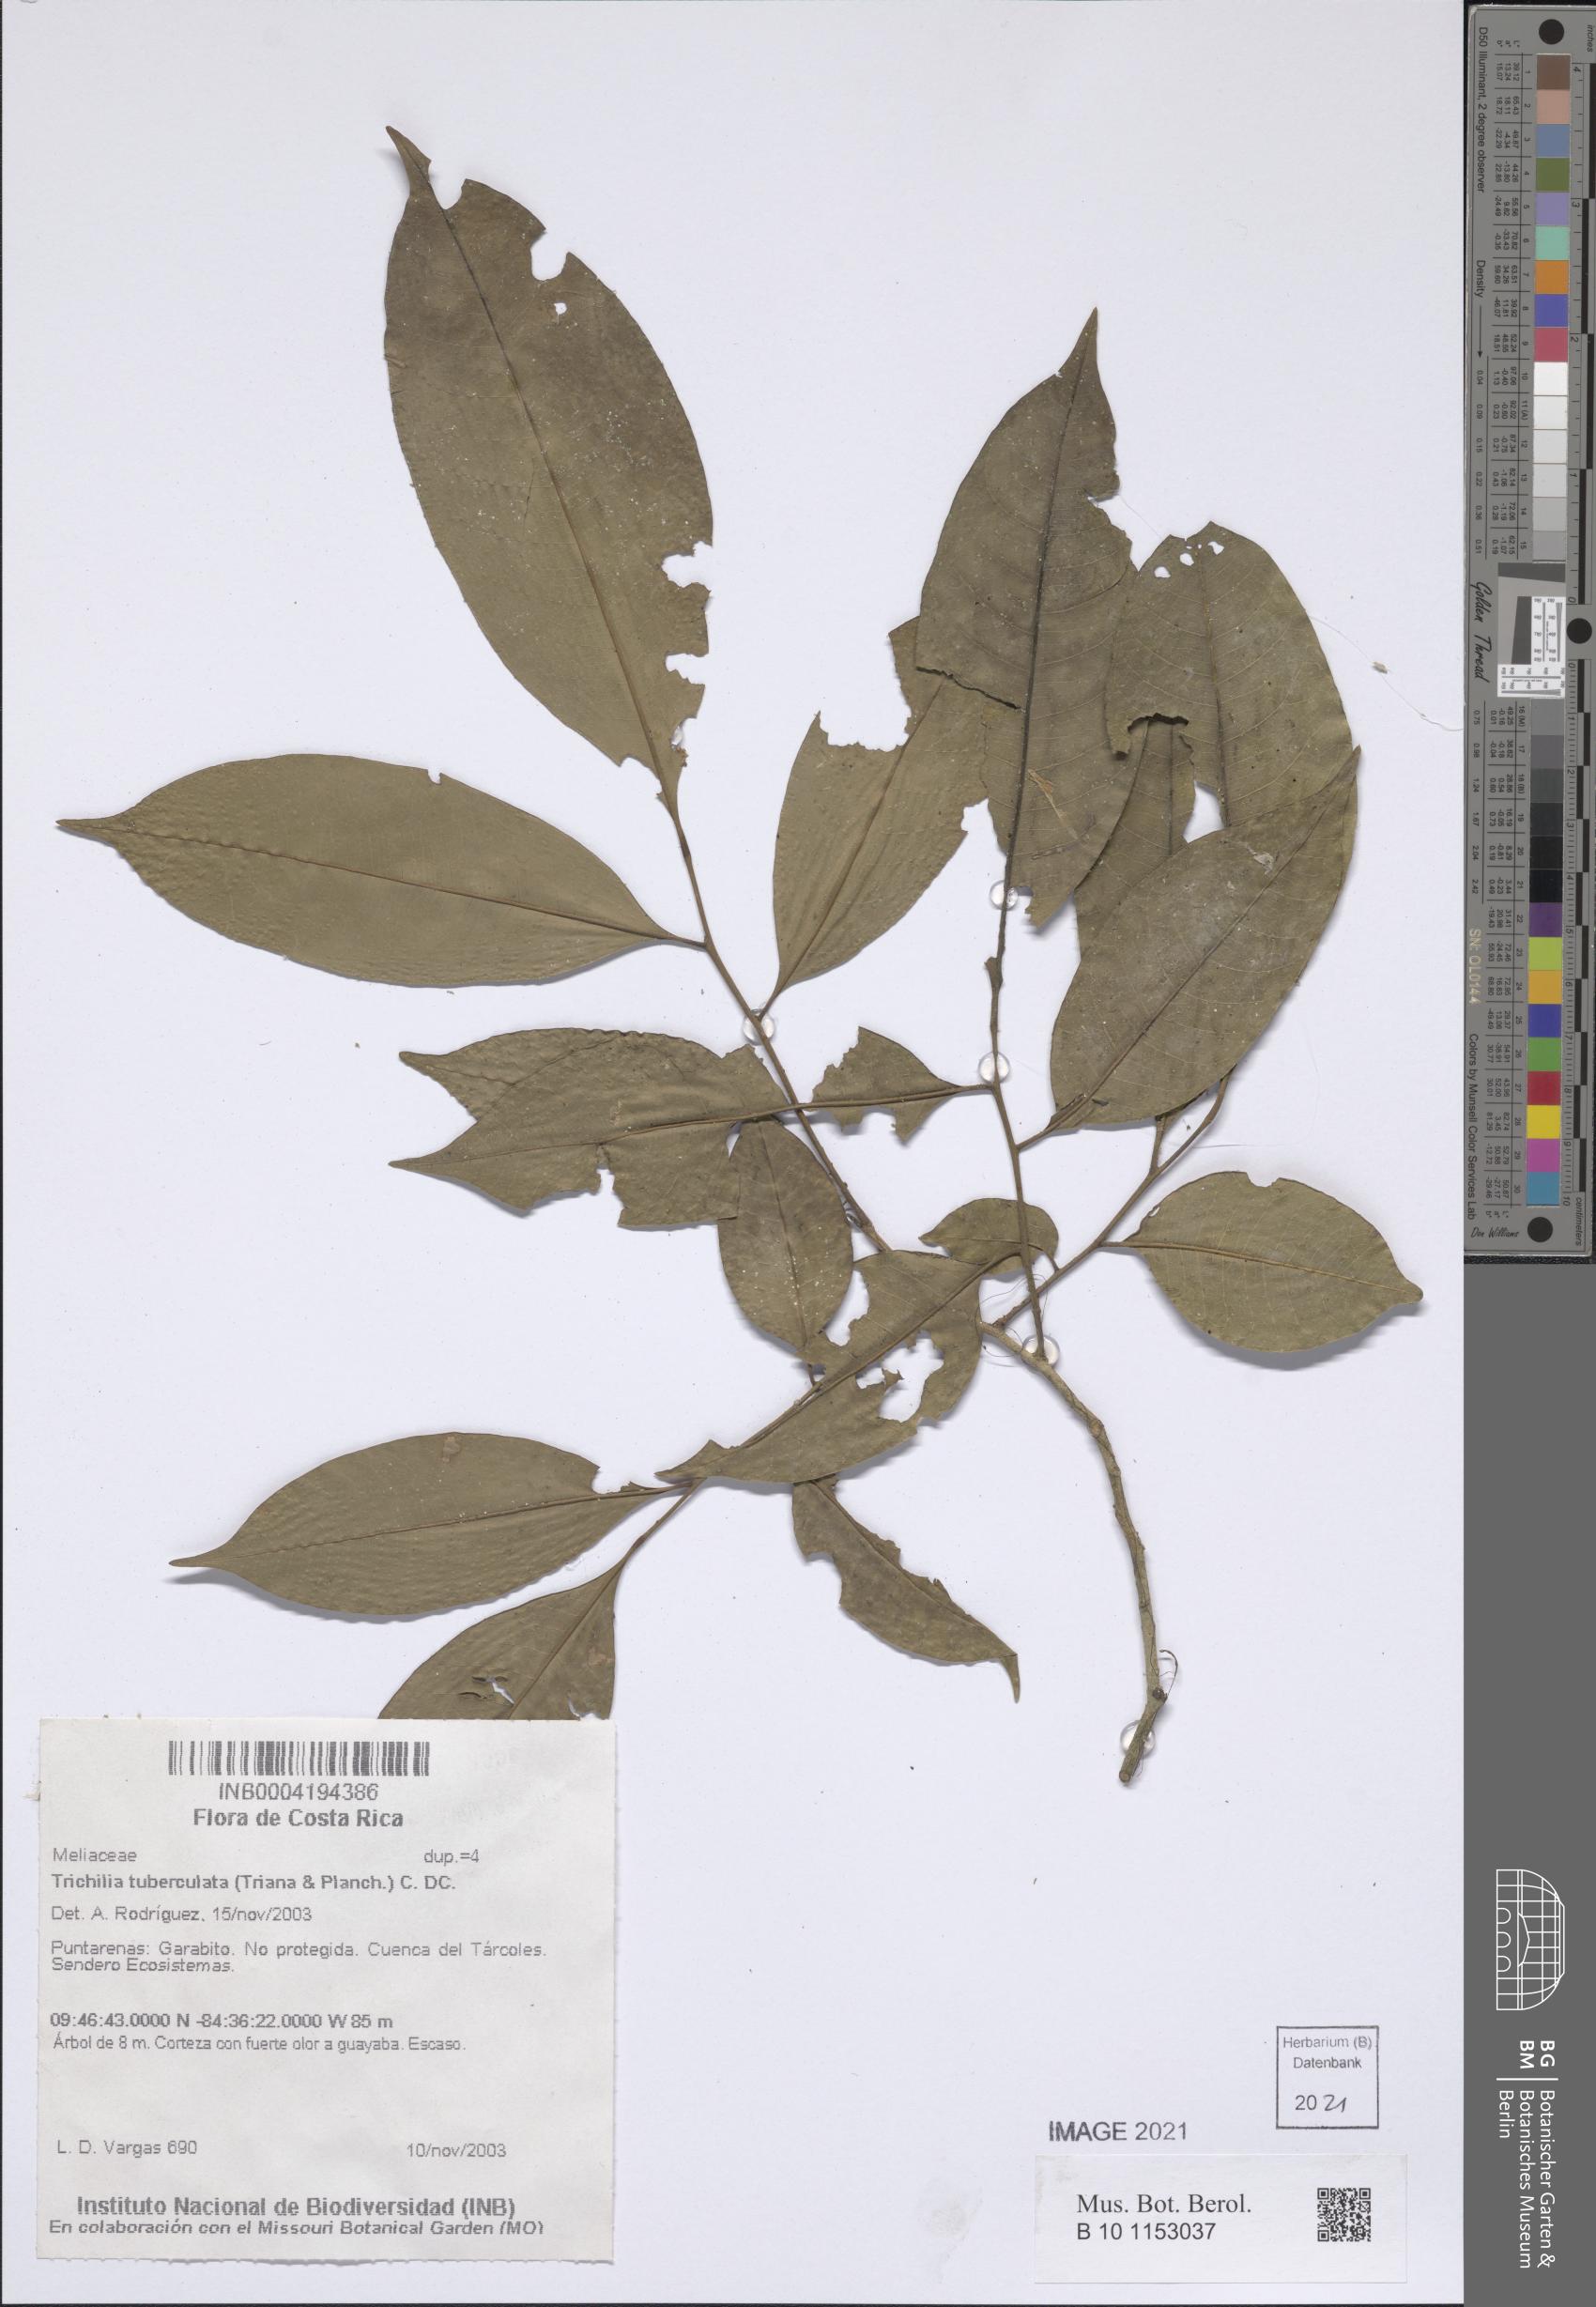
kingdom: Plantae
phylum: Tracheophyta
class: Magnoliopsida
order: Sapindales
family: Meliaceae
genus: Trichilia
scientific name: Trichilia tuberculata
